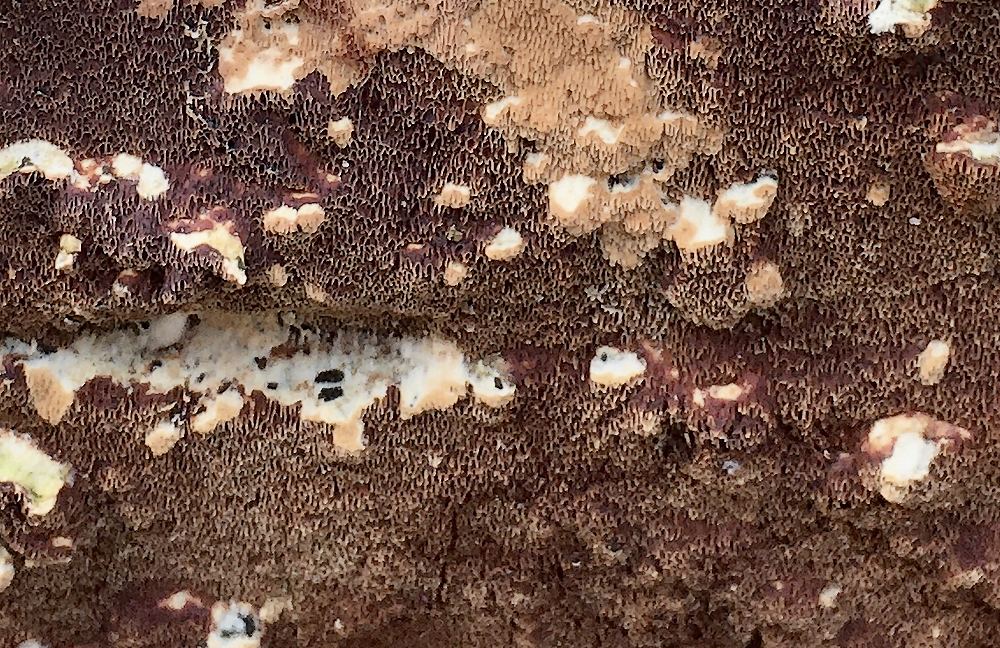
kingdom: Fungi
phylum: Basidiomycota
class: Agaricomycetes
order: Polyporales
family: Irpicaceae
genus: Meruliopsis
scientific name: Meruliopsis taxicola
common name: purpurbrun foldporesvamp
